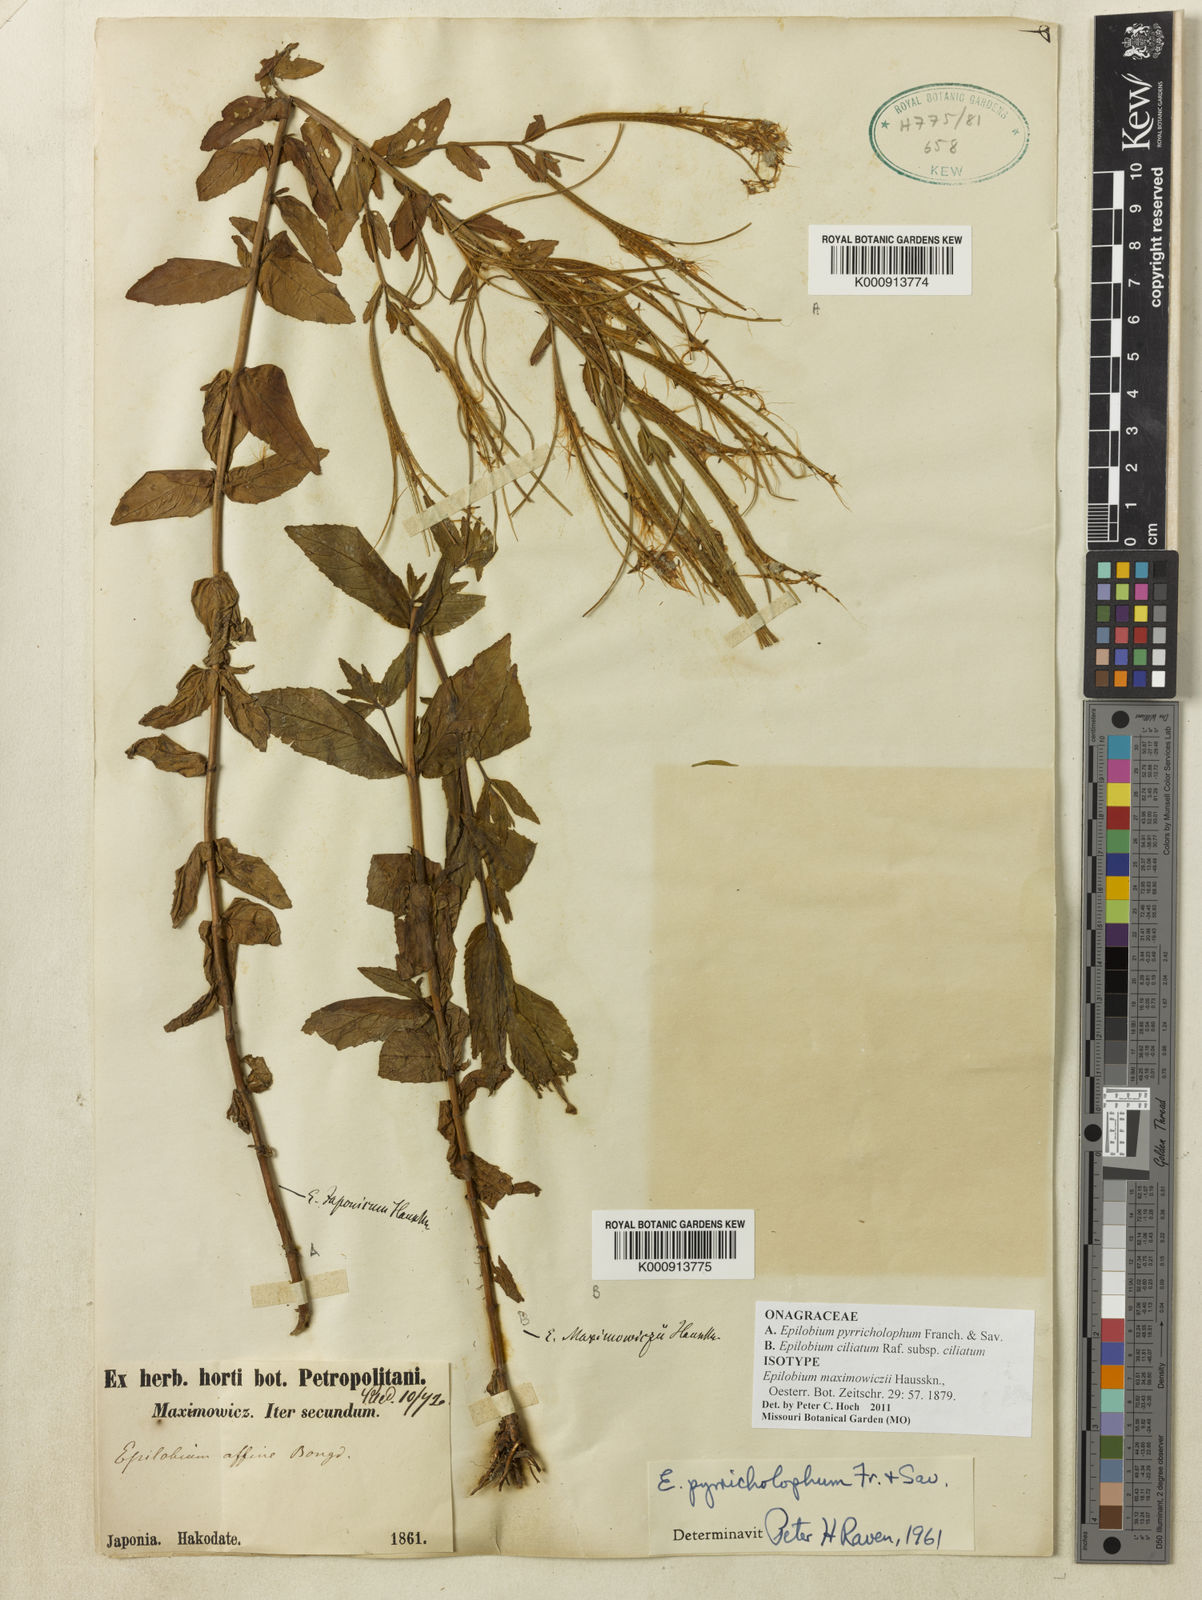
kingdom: Plantae
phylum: Tracheophyta
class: Magnoliopsida
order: Myrtales
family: Onagraceae
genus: Epilobium
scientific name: Epilobium ciliatum
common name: American willowherb
